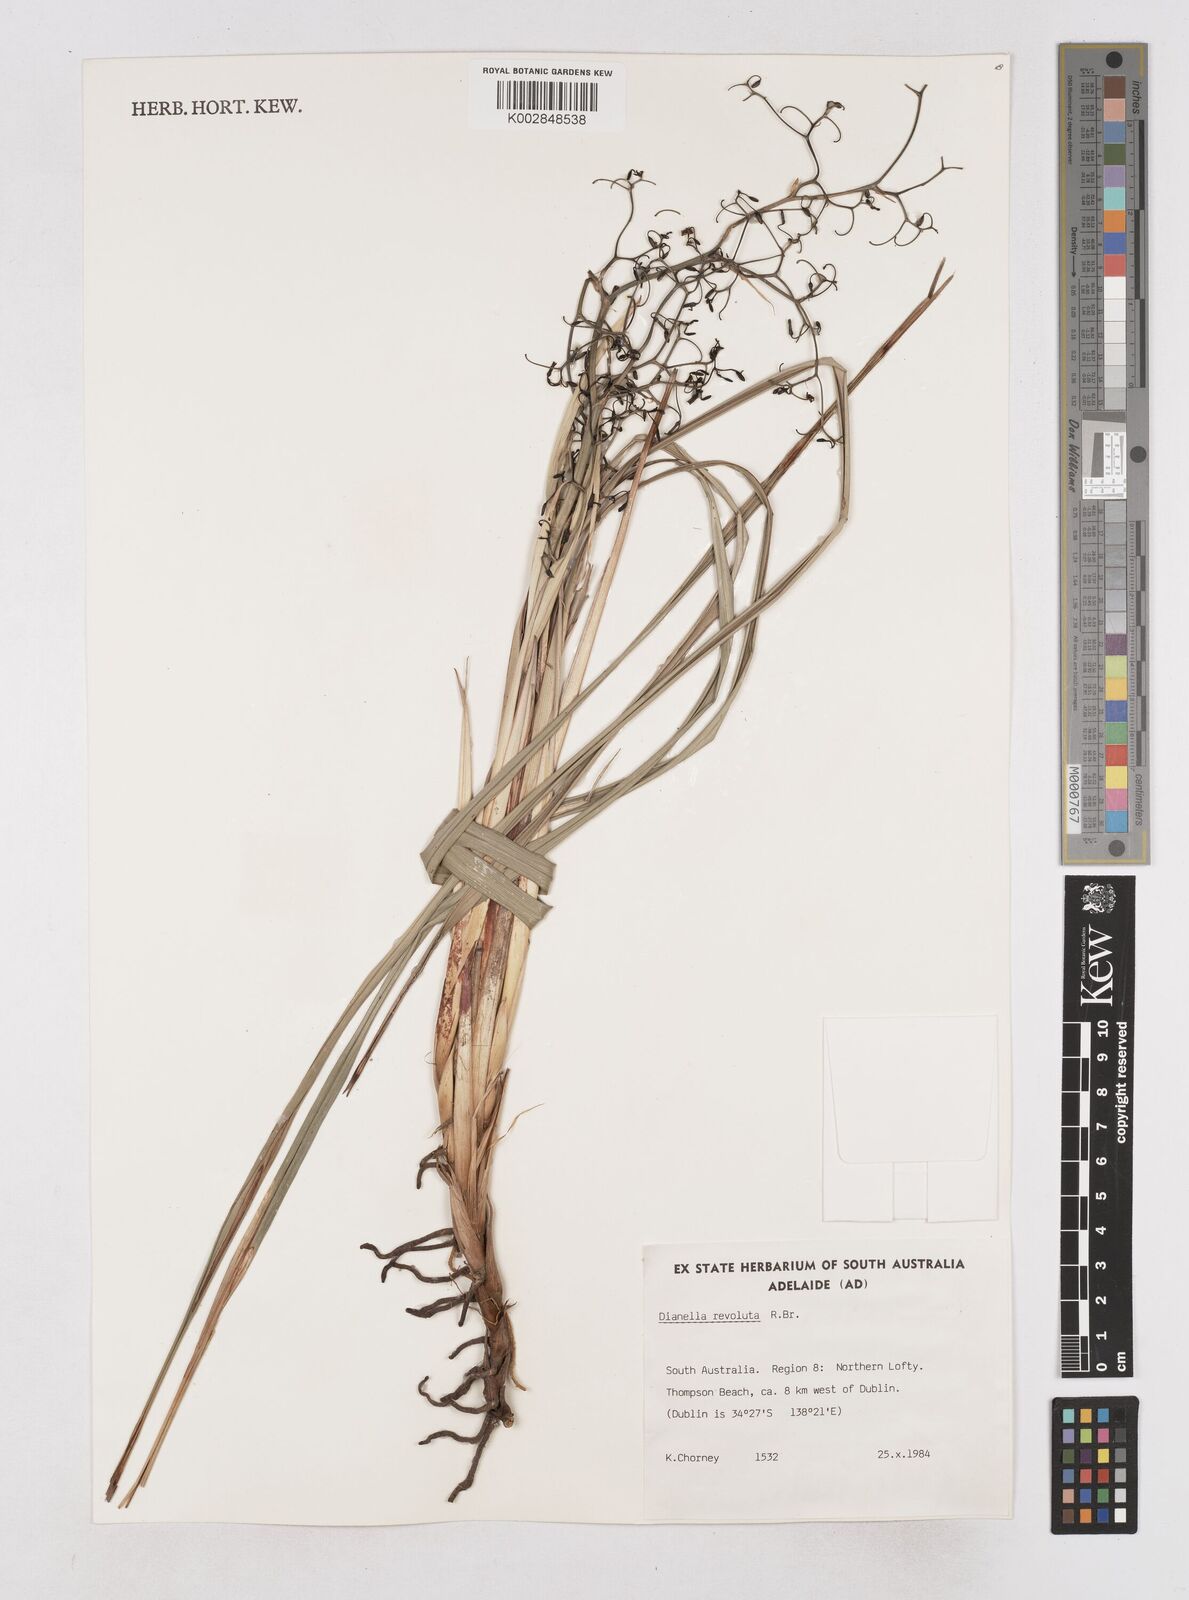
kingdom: Plantae
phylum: Tracheophyta
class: Liliopsida
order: Asparagales
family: Asphodelaceae
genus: Dianella
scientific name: Dianella revoluta
